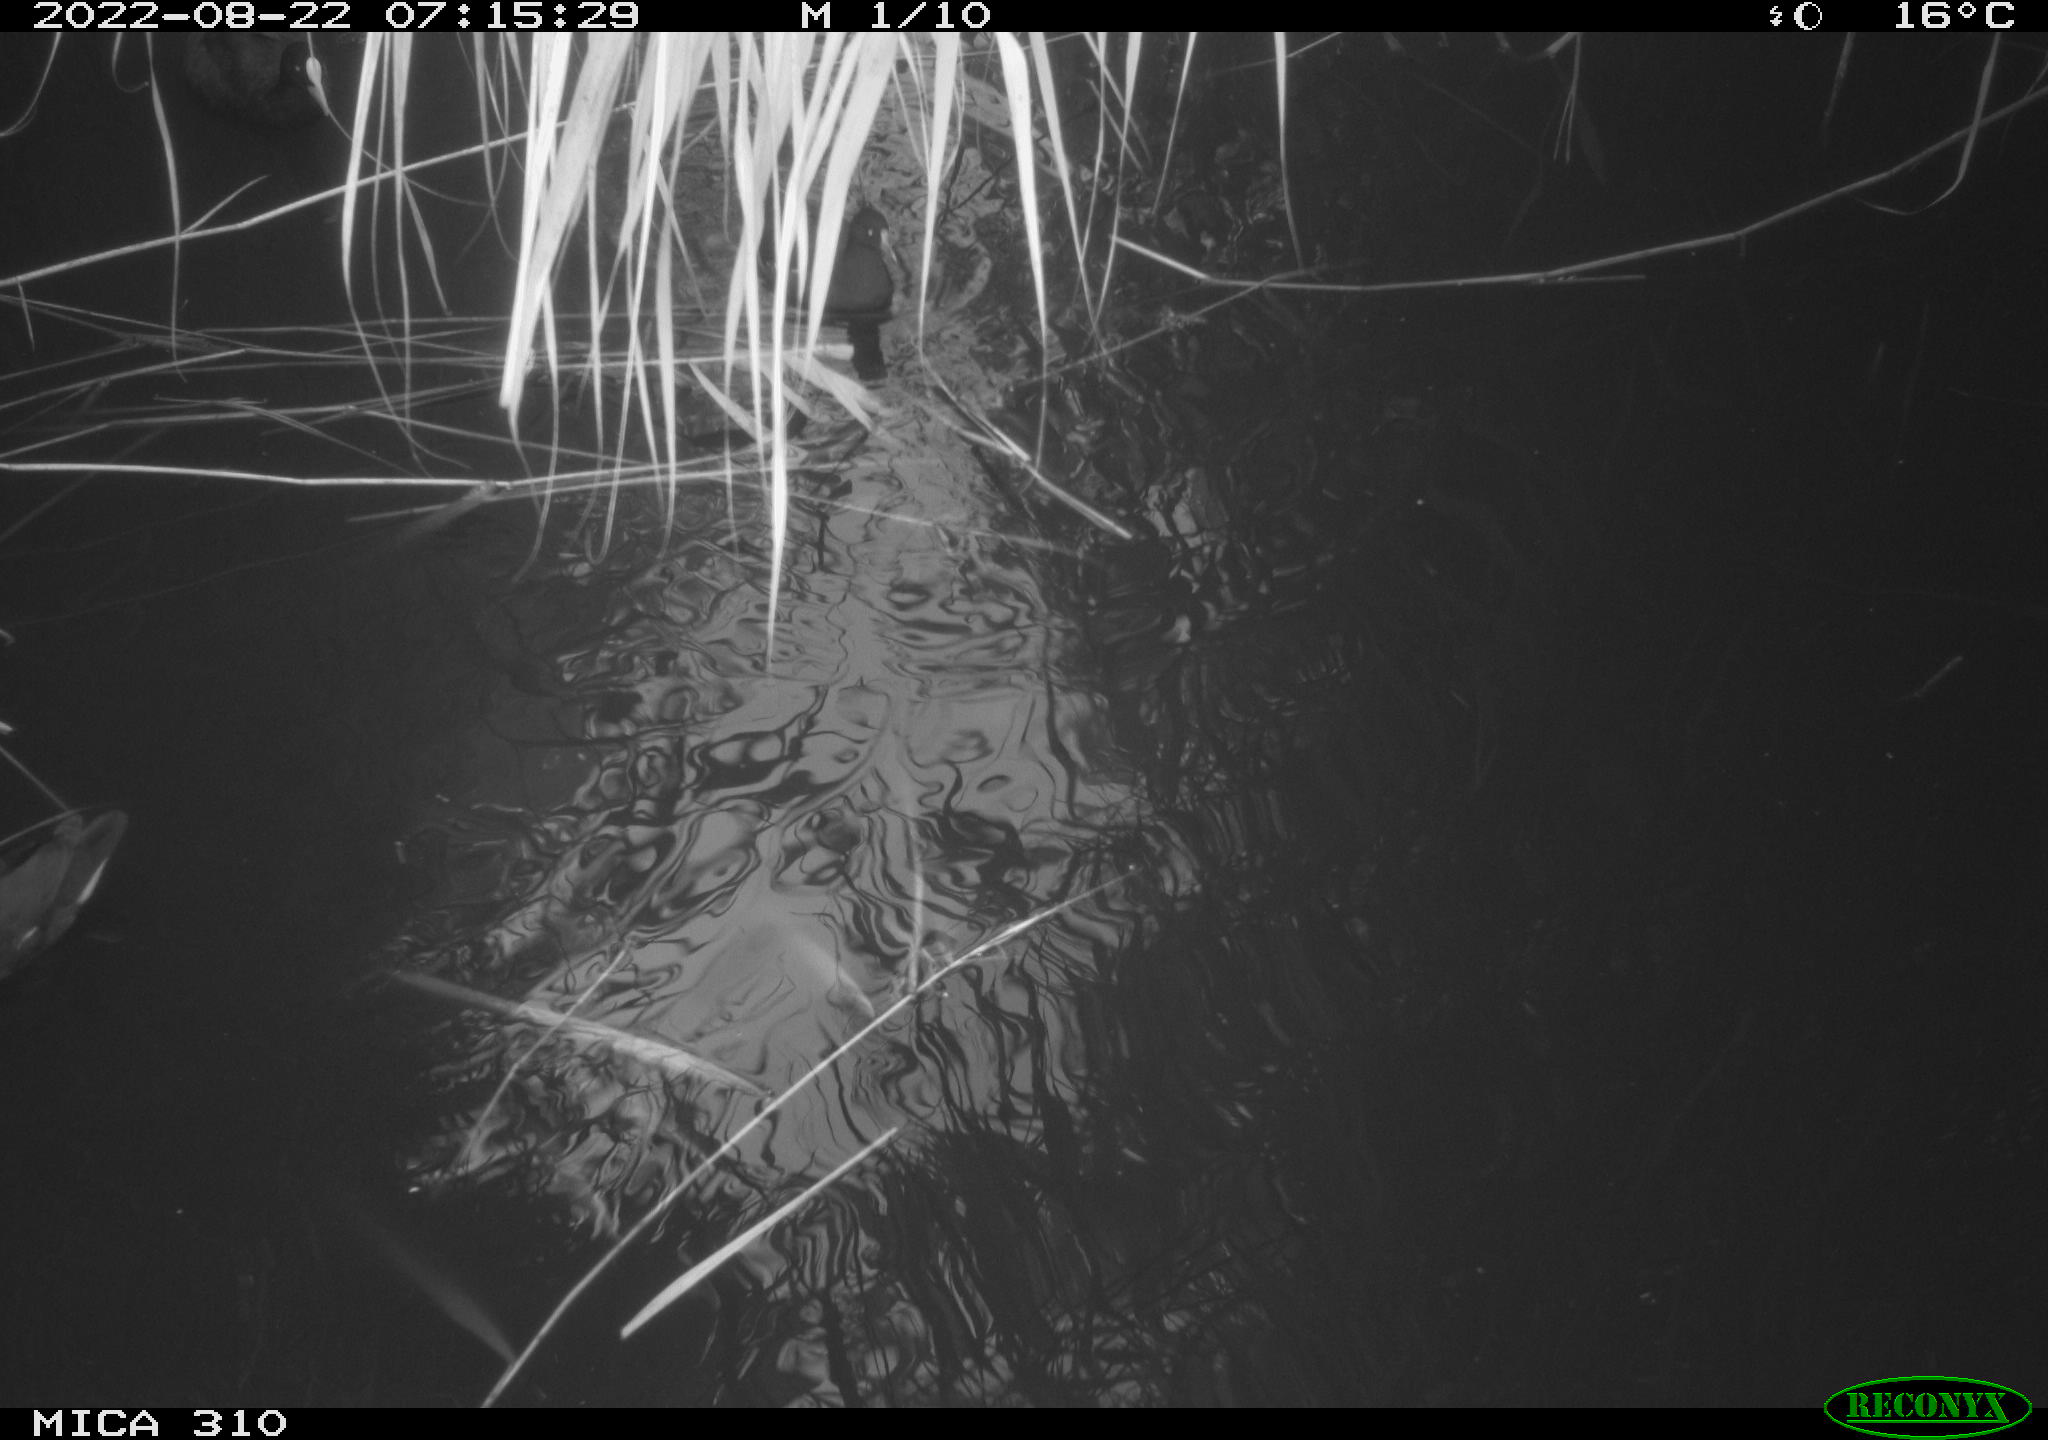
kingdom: Animalia
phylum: Chordata
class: Aves
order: Gruiformes
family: Rallidae
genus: Gallinula
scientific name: Gallinula chloropus
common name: Common moorhen
